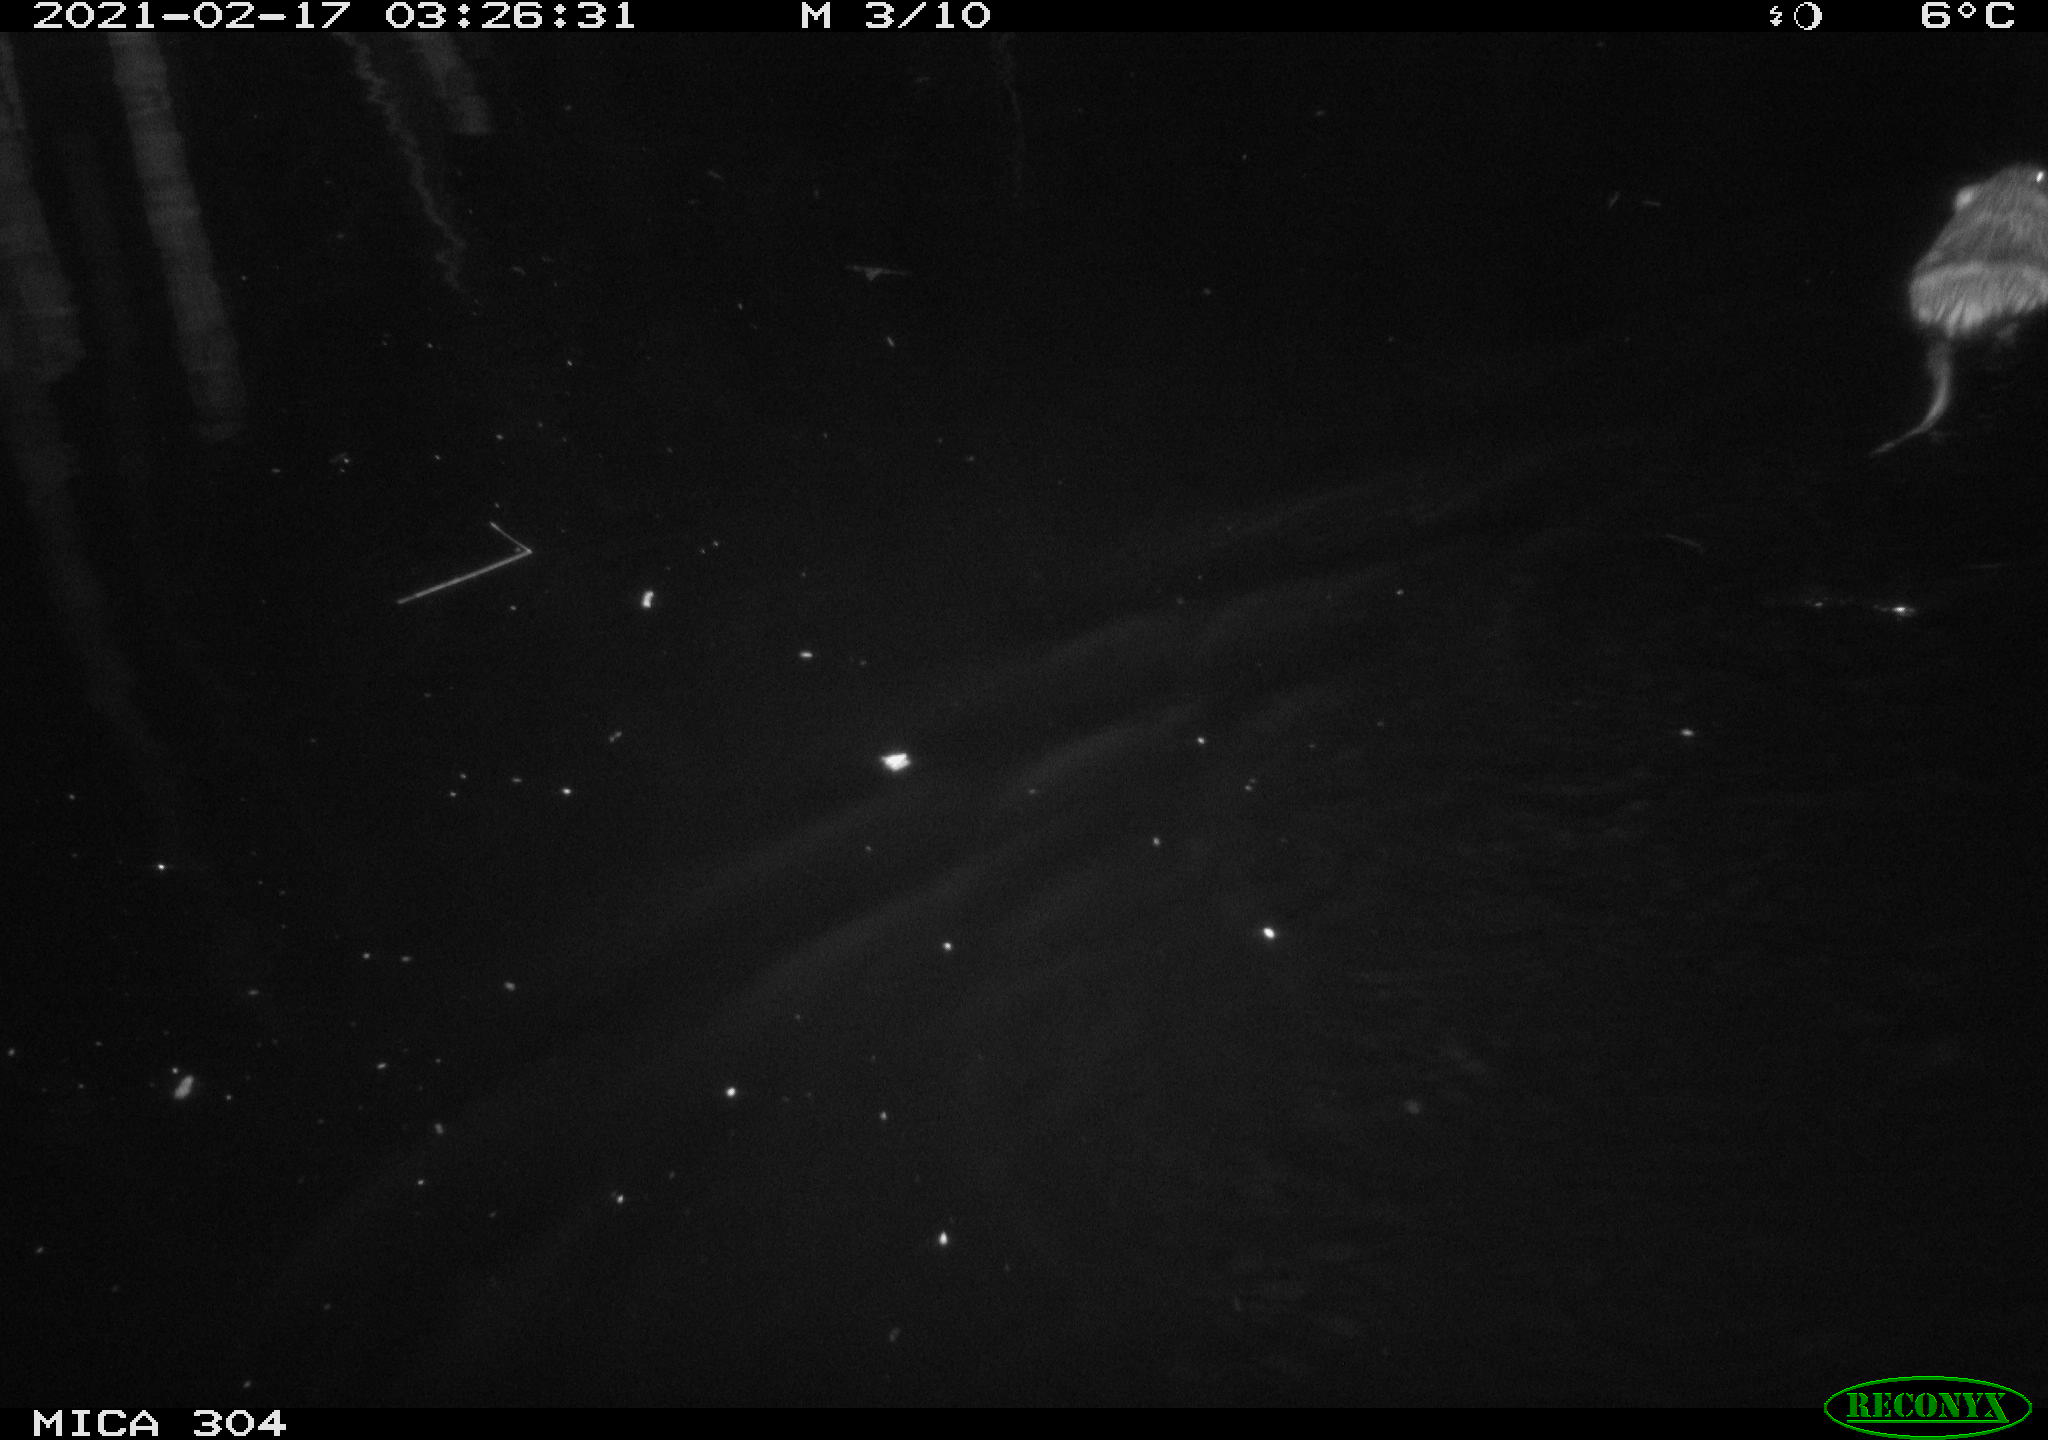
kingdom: Animalia
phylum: Chordata
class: Mammalia
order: Rodentia
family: Cricetidae
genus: Ondatra
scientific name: Ondatra zibethicus
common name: Muskrat
